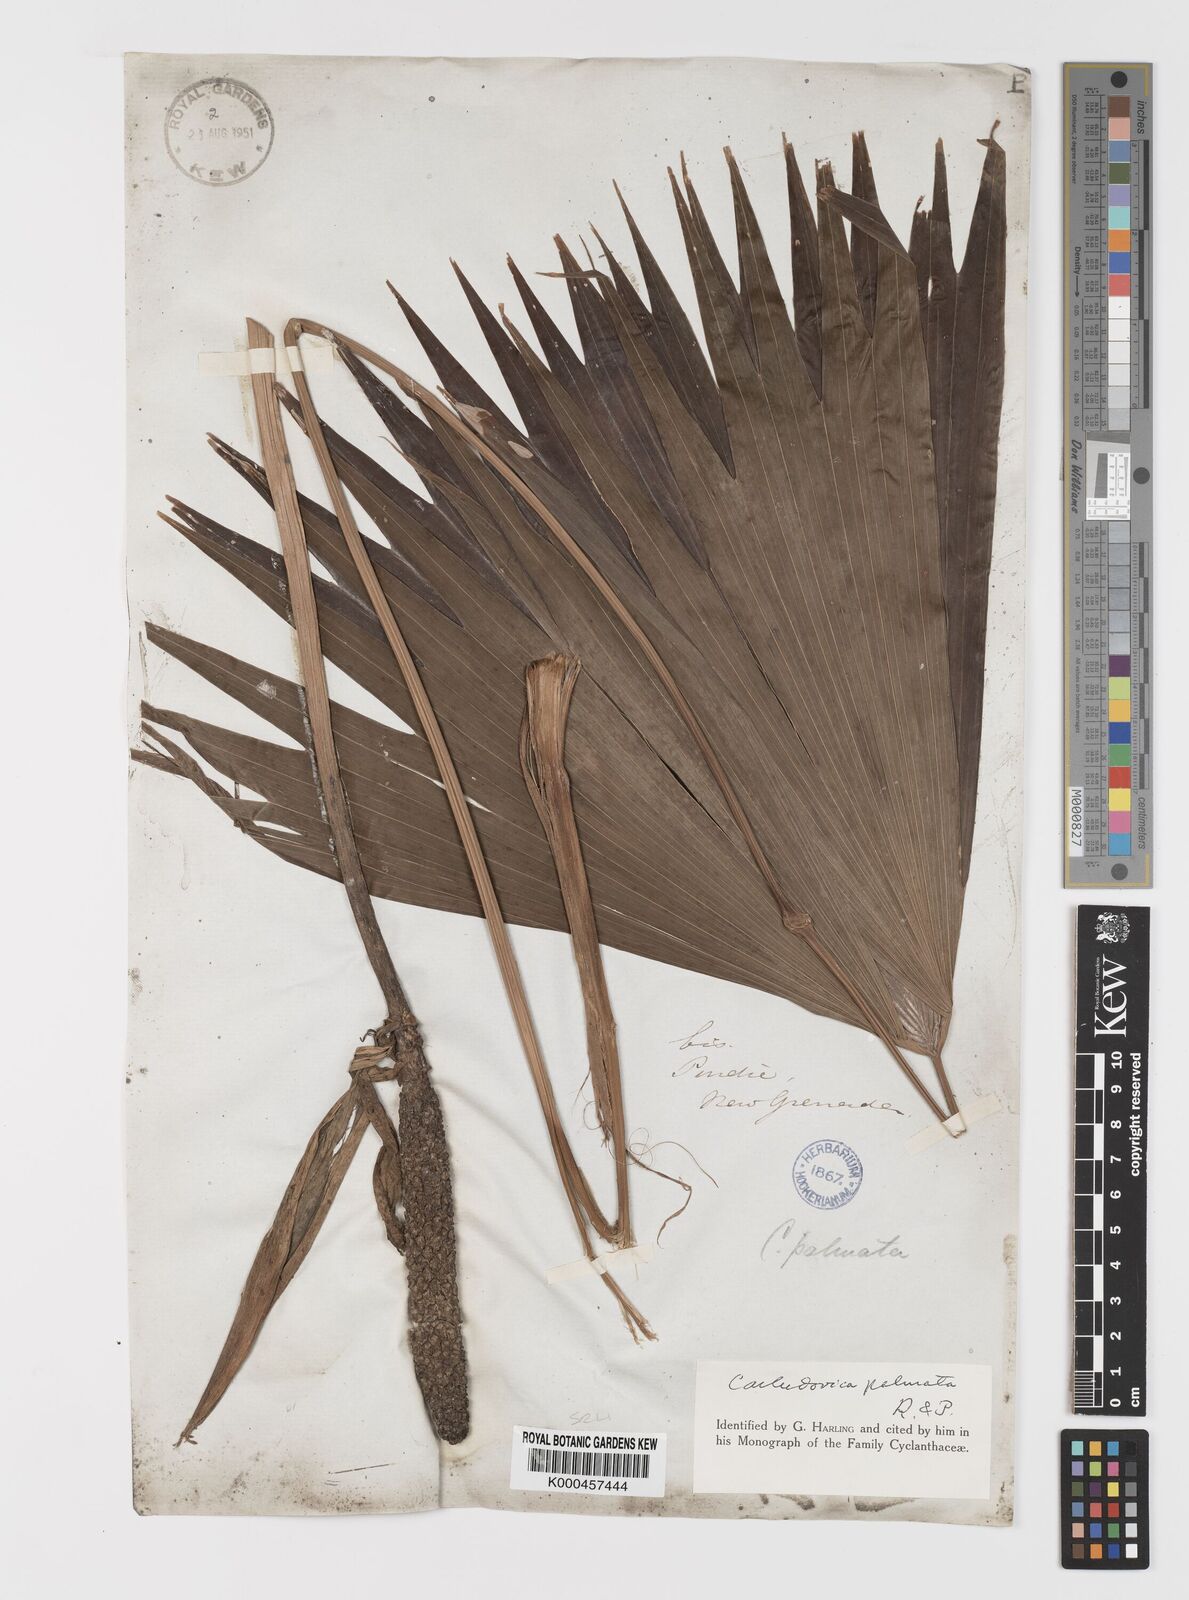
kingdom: Plantae
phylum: Tracheophyta
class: Liliopsida
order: Pandanales
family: Cyclanthaceae
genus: Carludovica
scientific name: Carludovica palmata
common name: Panama hat plant
